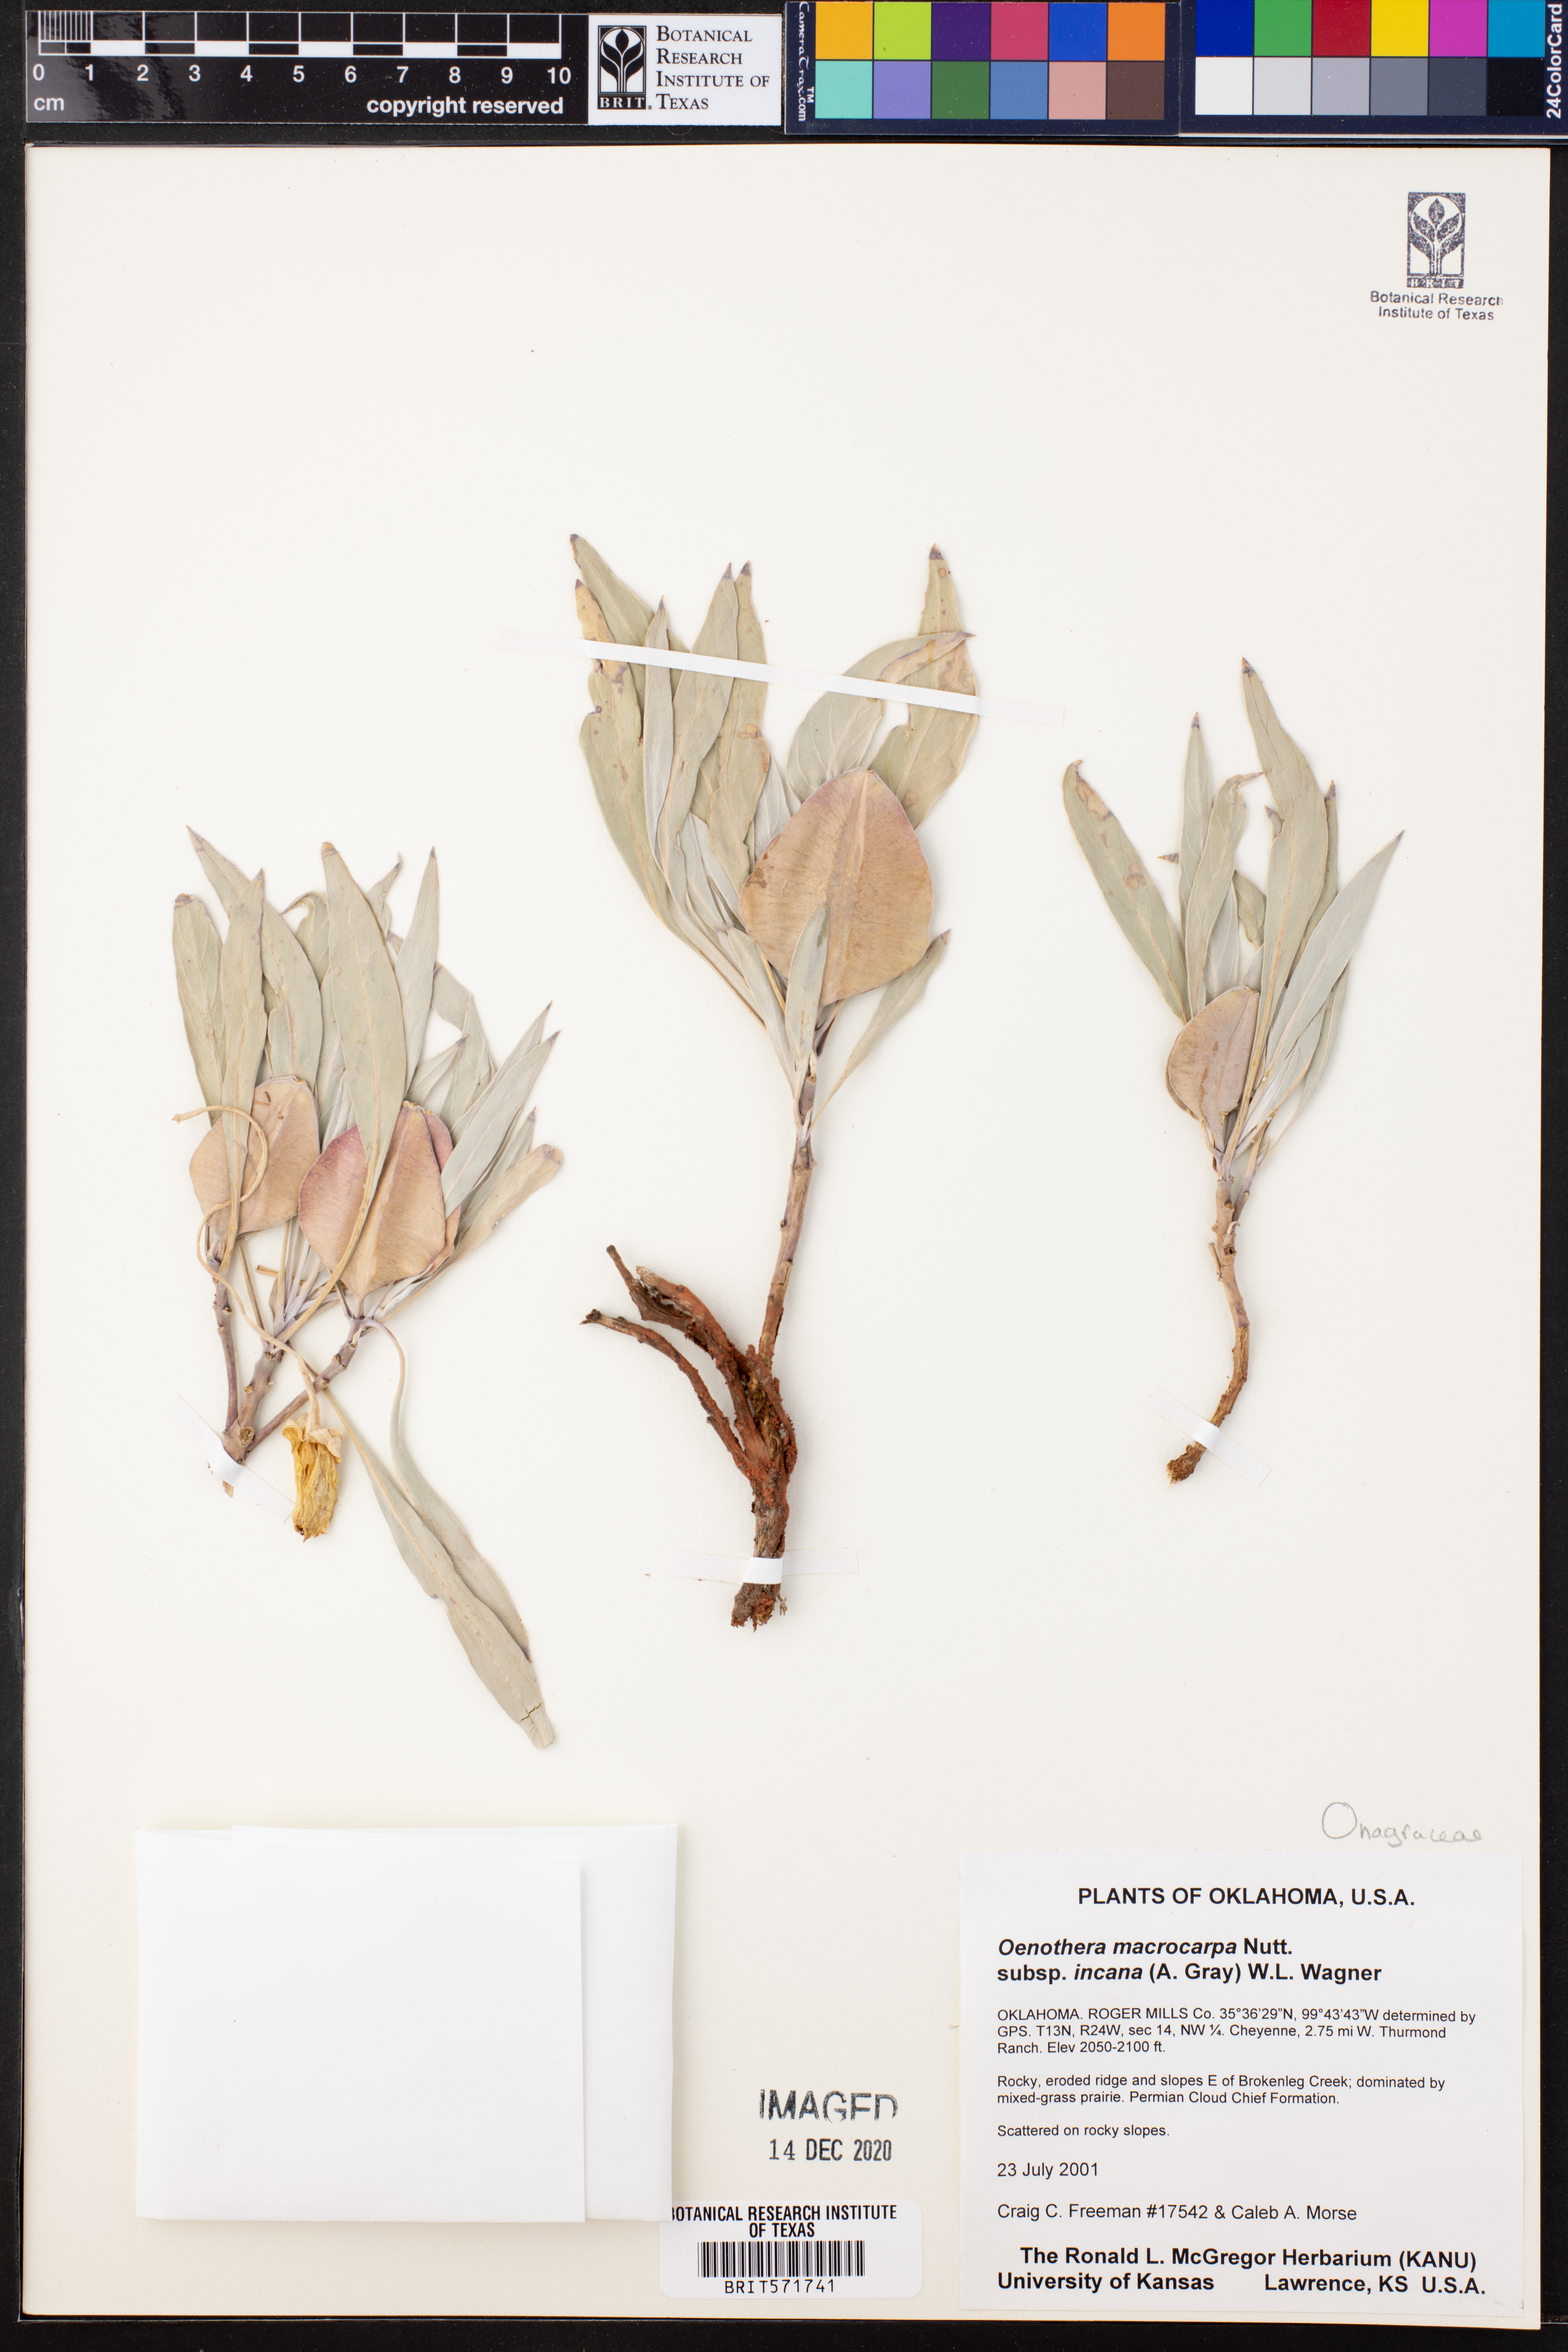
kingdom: Plantae
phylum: Tracheophyta
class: Magnoliopsida
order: Myrtales
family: Onagraceae
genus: Oenothera
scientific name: Oenothera macrocarpa
